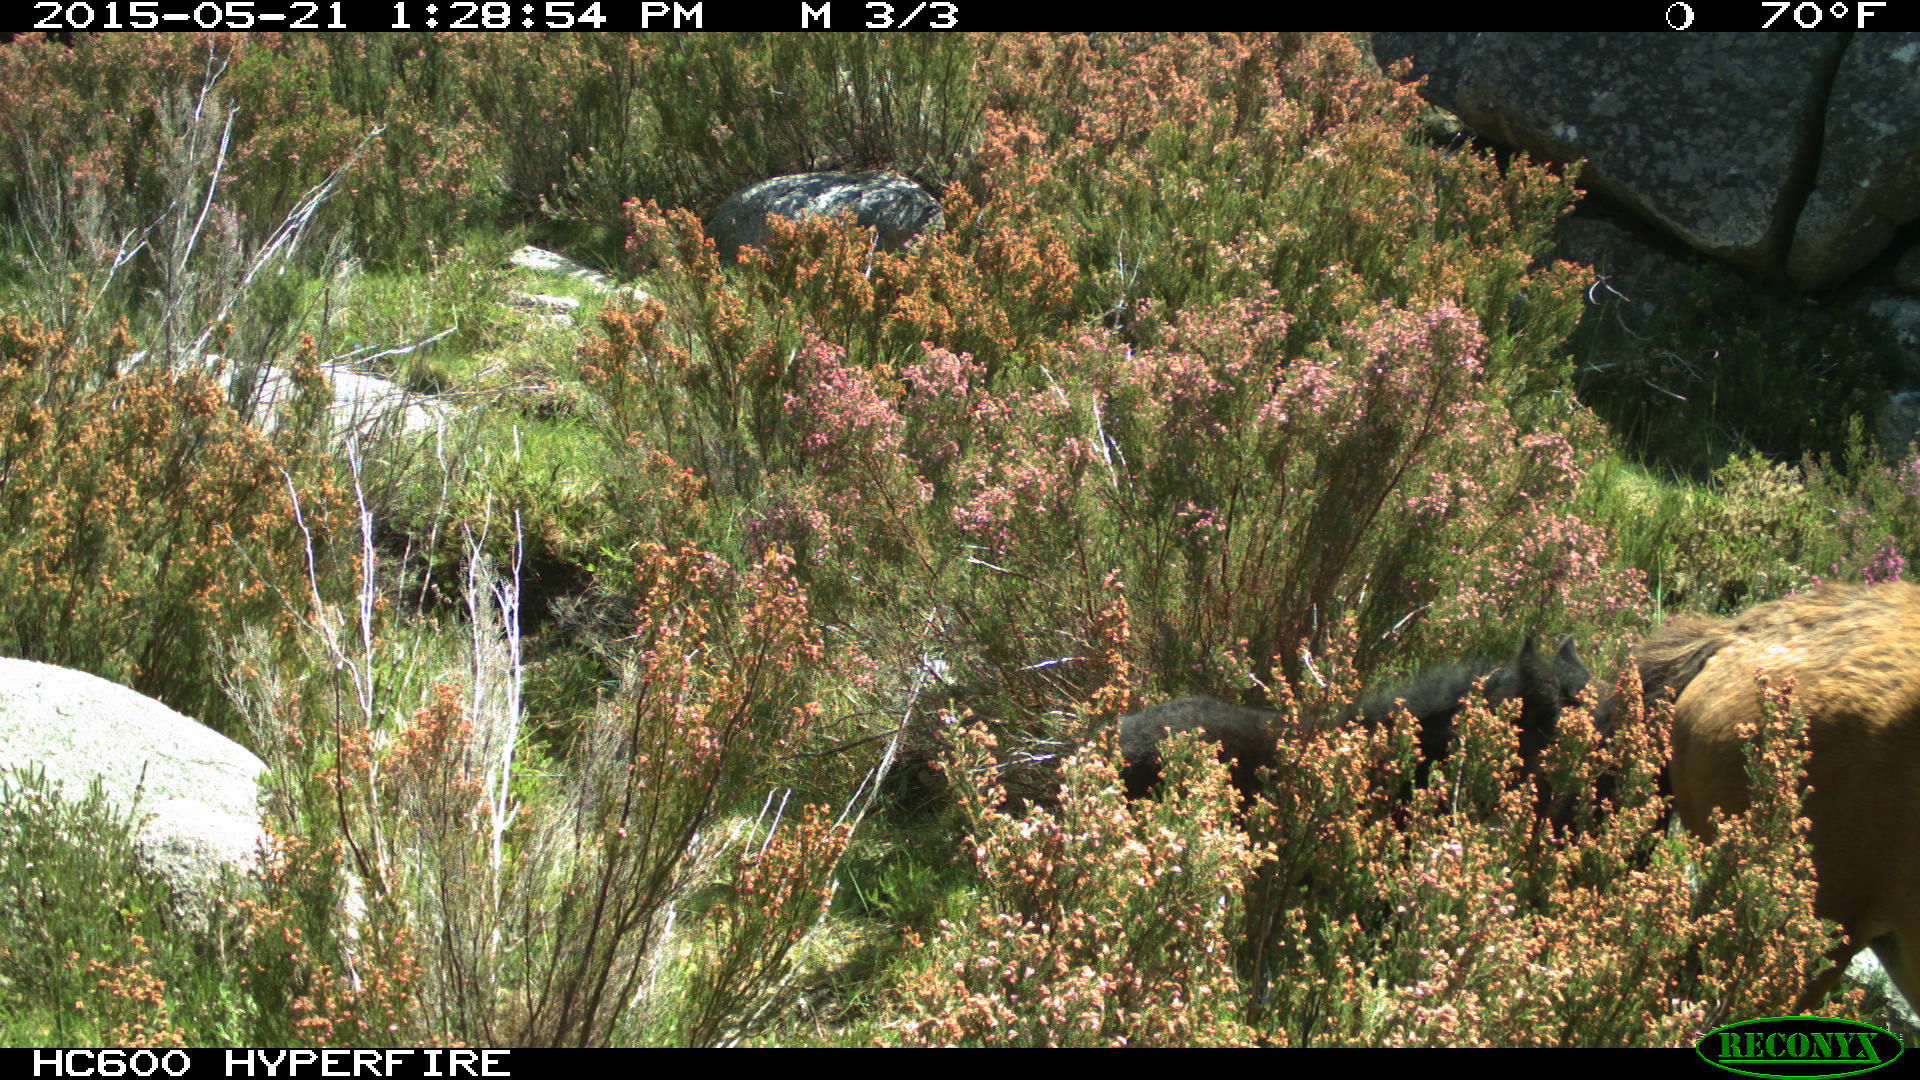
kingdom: Animalia
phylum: Chordata
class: Mammalia
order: Perissodactyla
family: Equidae
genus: Equus
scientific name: Equus caballus
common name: Horse
